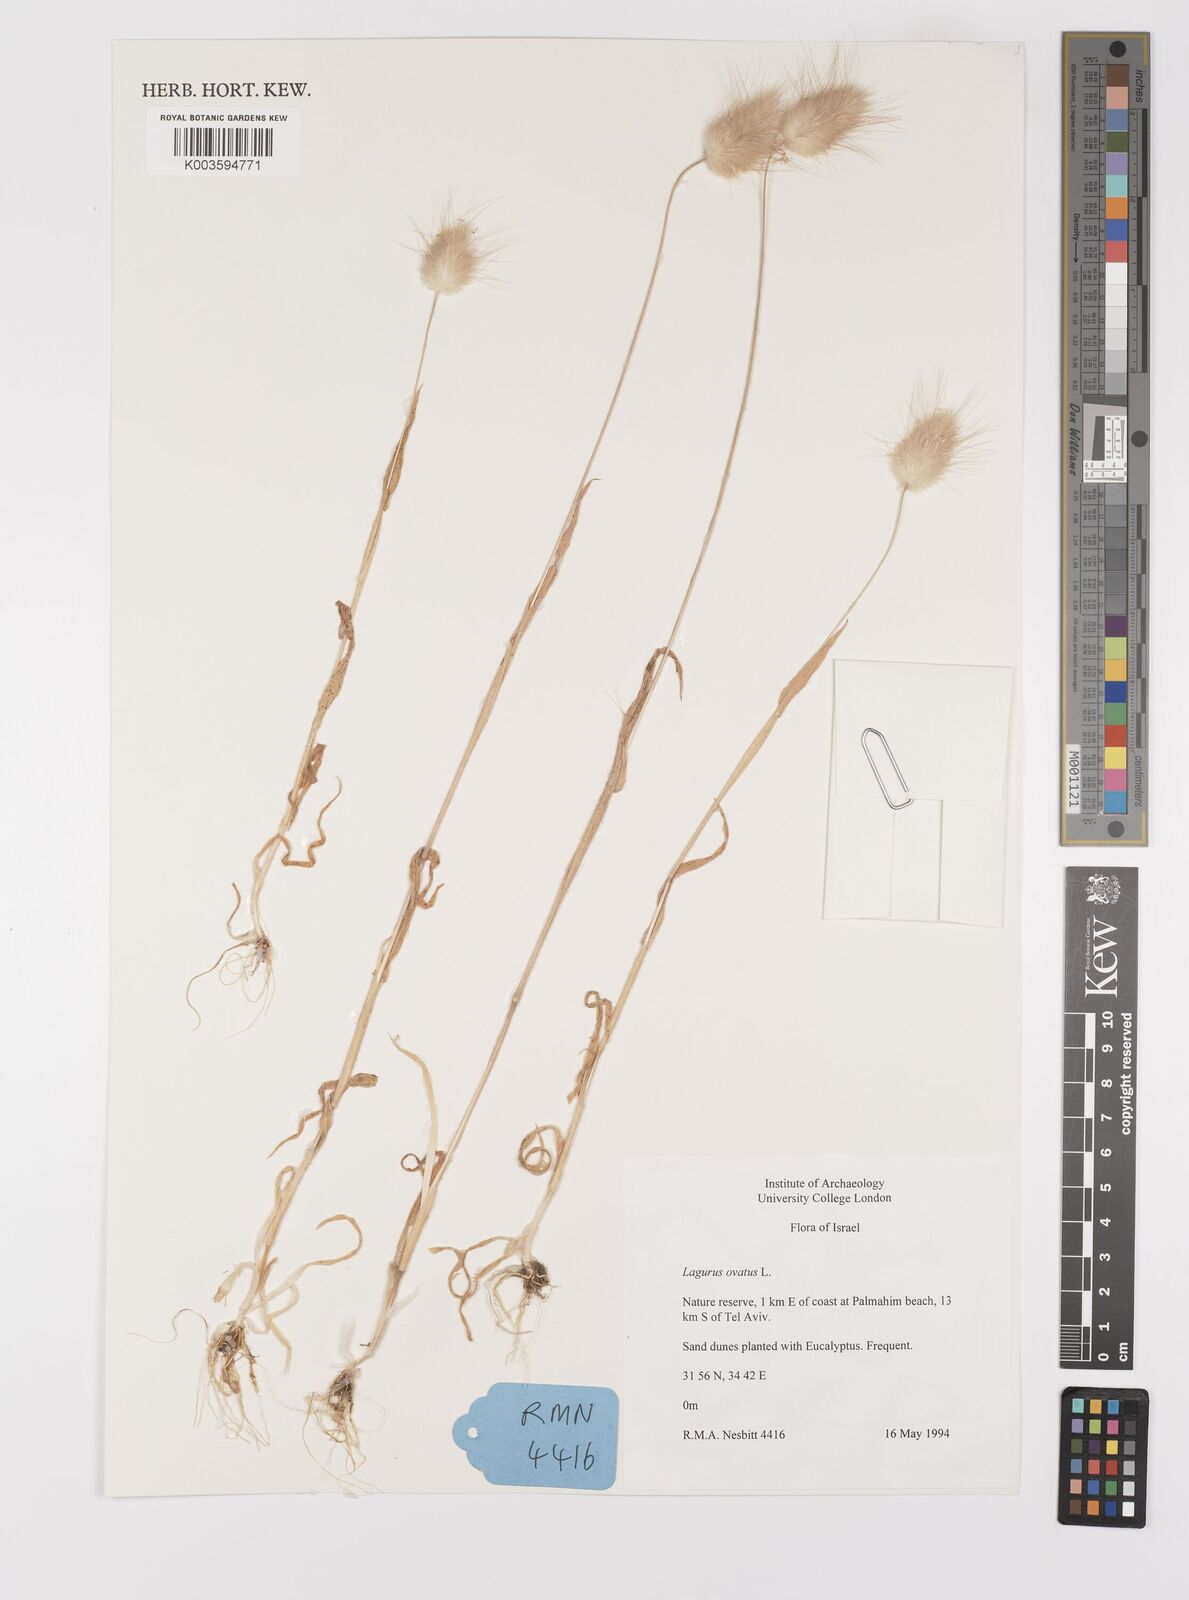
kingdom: Plantae
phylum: Tracheophyta
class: Liliopsida
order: Poales
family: Poaceae
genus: Lagurus
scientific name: Lagurus ovatus
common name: Hare's-tail
